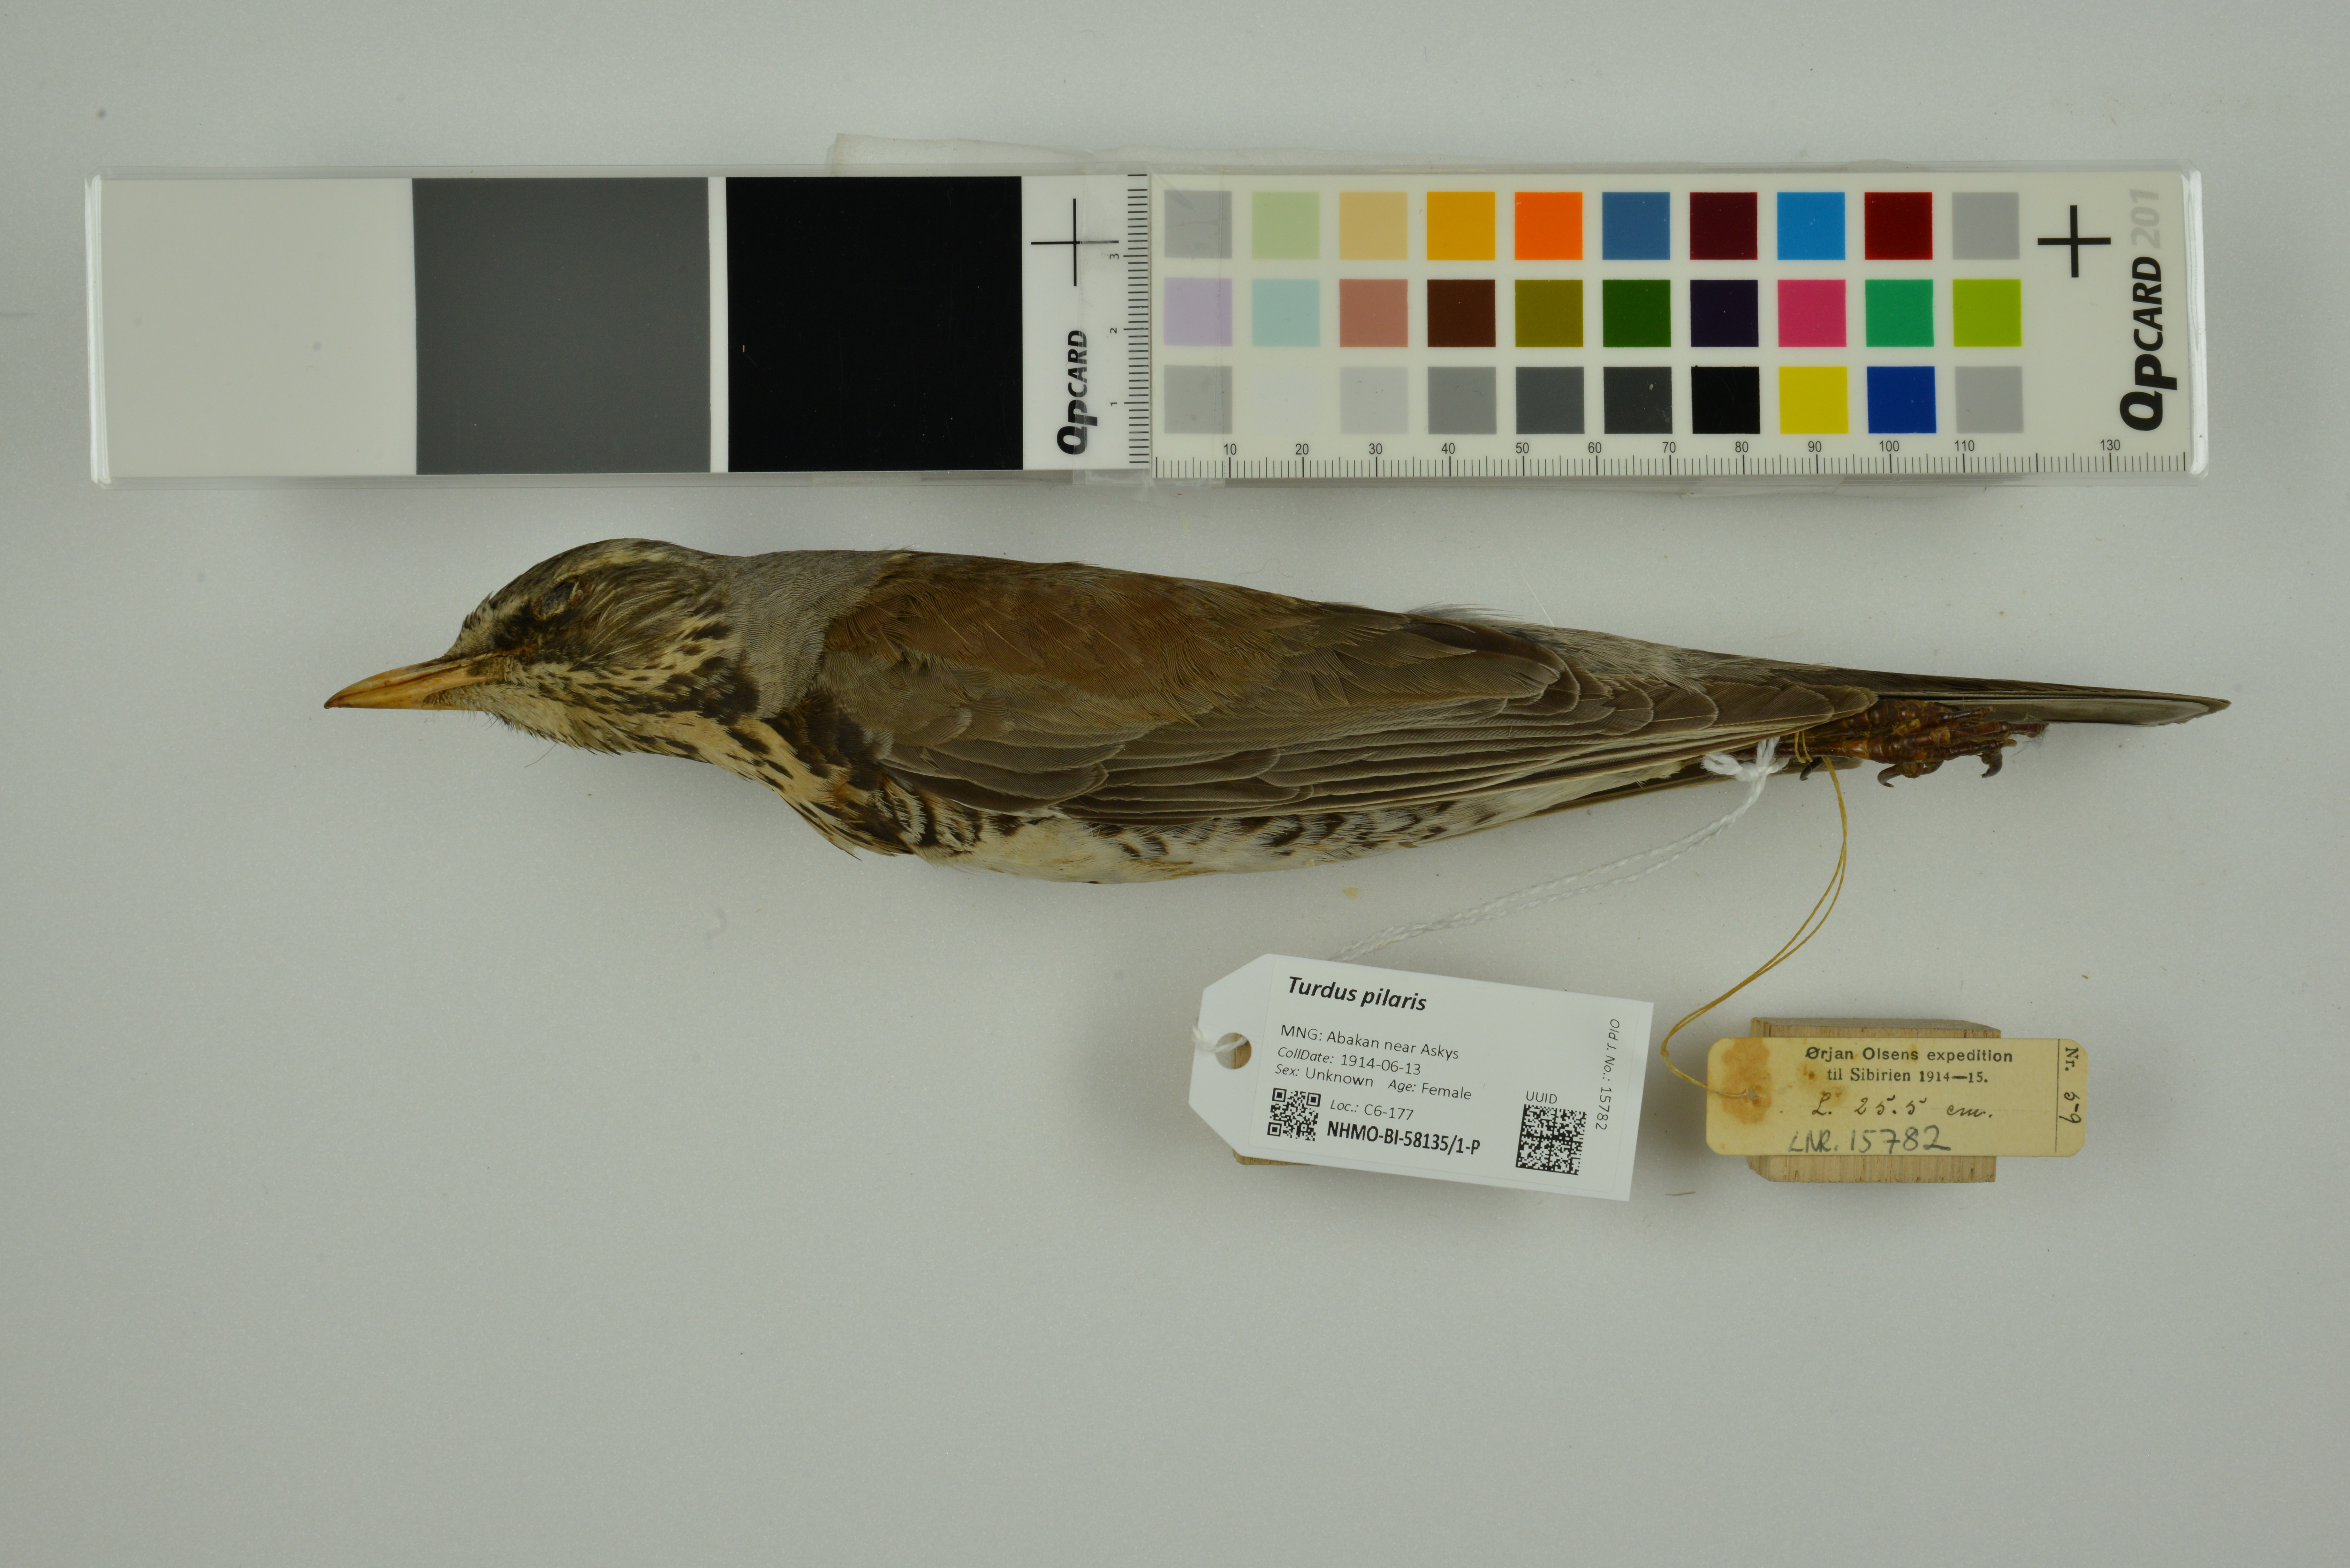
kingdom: Animalia
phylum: Chordata
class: Aves
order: Passeriformes
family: Turdidae
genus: Turdus
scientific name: Turdus pilaris
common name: Fieldfare
